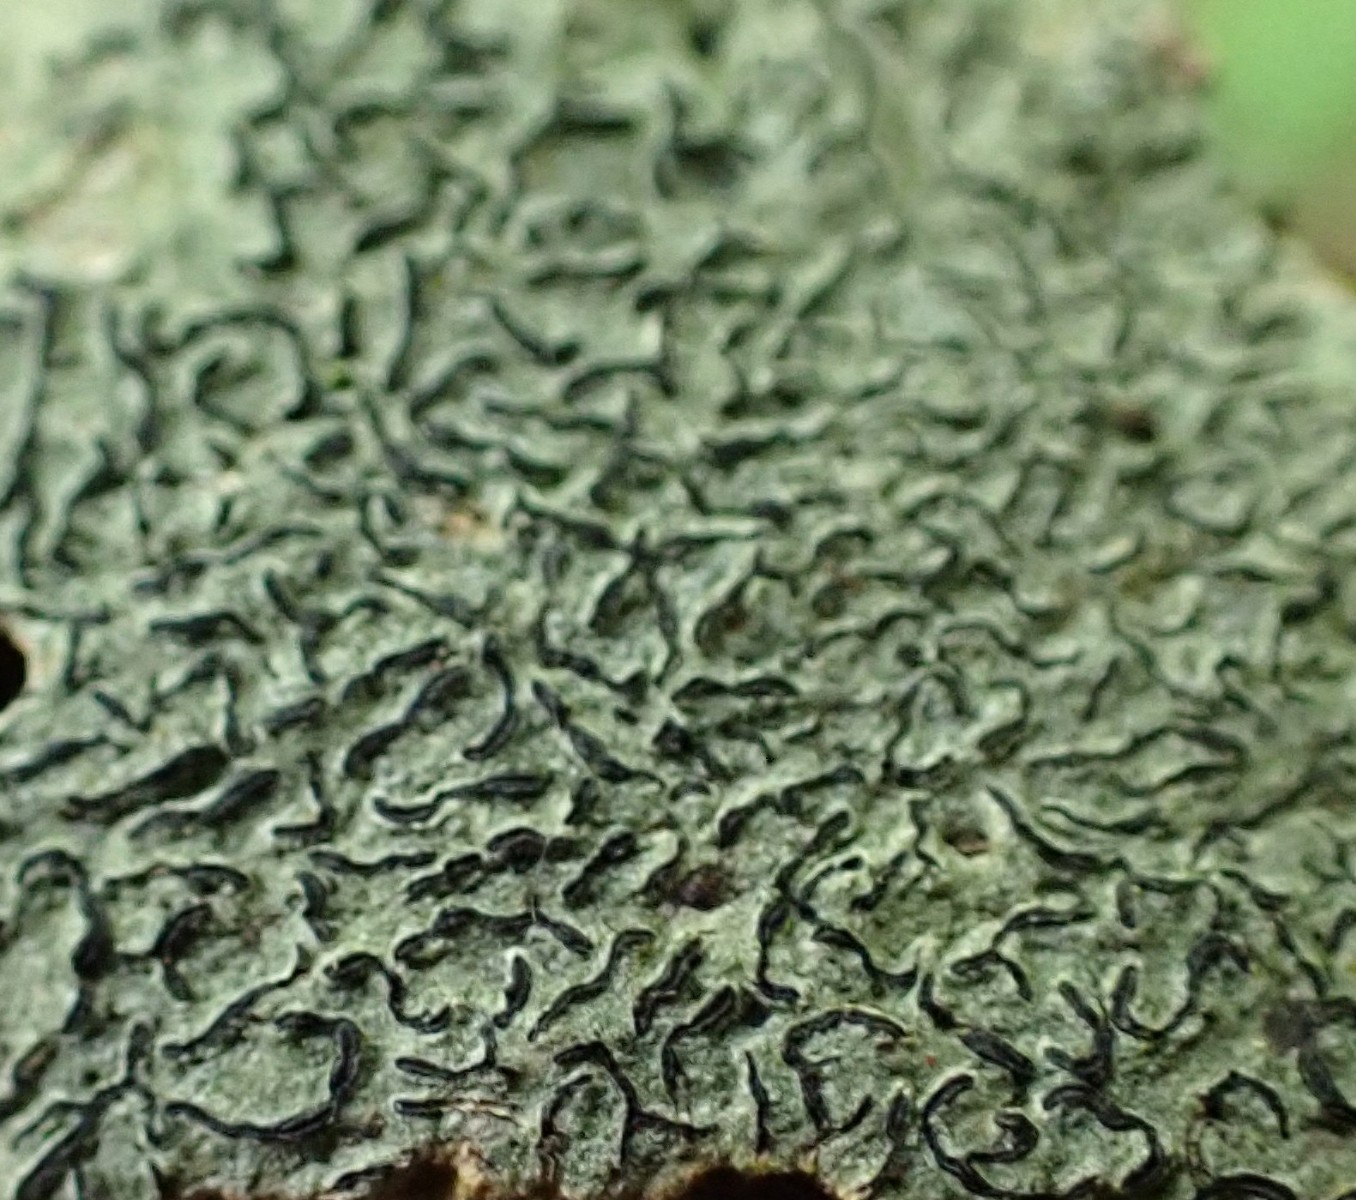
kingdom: Fungi
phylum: Ascomycota
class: Lecanoromycetes
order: Ostropales
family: Graphidaceae
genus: Graphis
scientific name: Graphis scripta
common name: almindelig skriftlav
